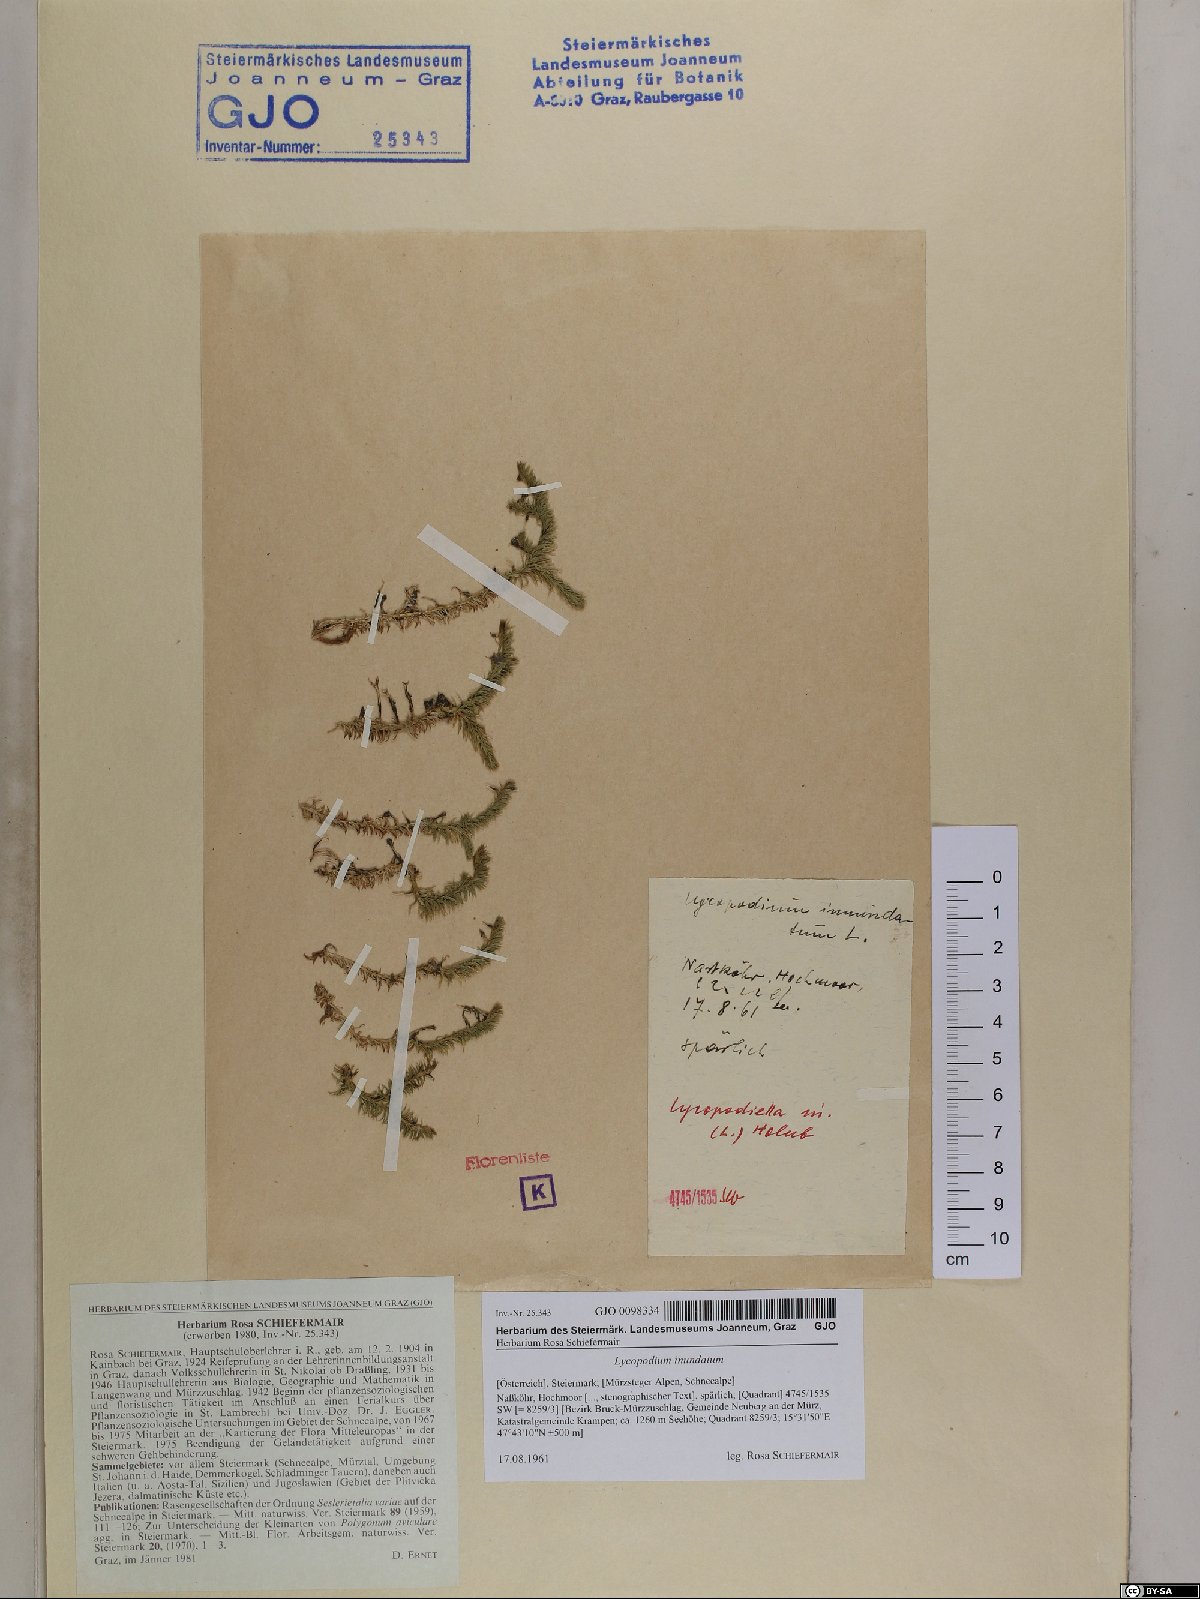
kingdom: Plantae
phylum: Tracheophyta
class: Lycopodiopsida
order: Lycopodiales
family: Lycopodiaceae
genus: Lycopodiella
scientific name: Lycopodiella inundata
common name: Marsh clubmoss
